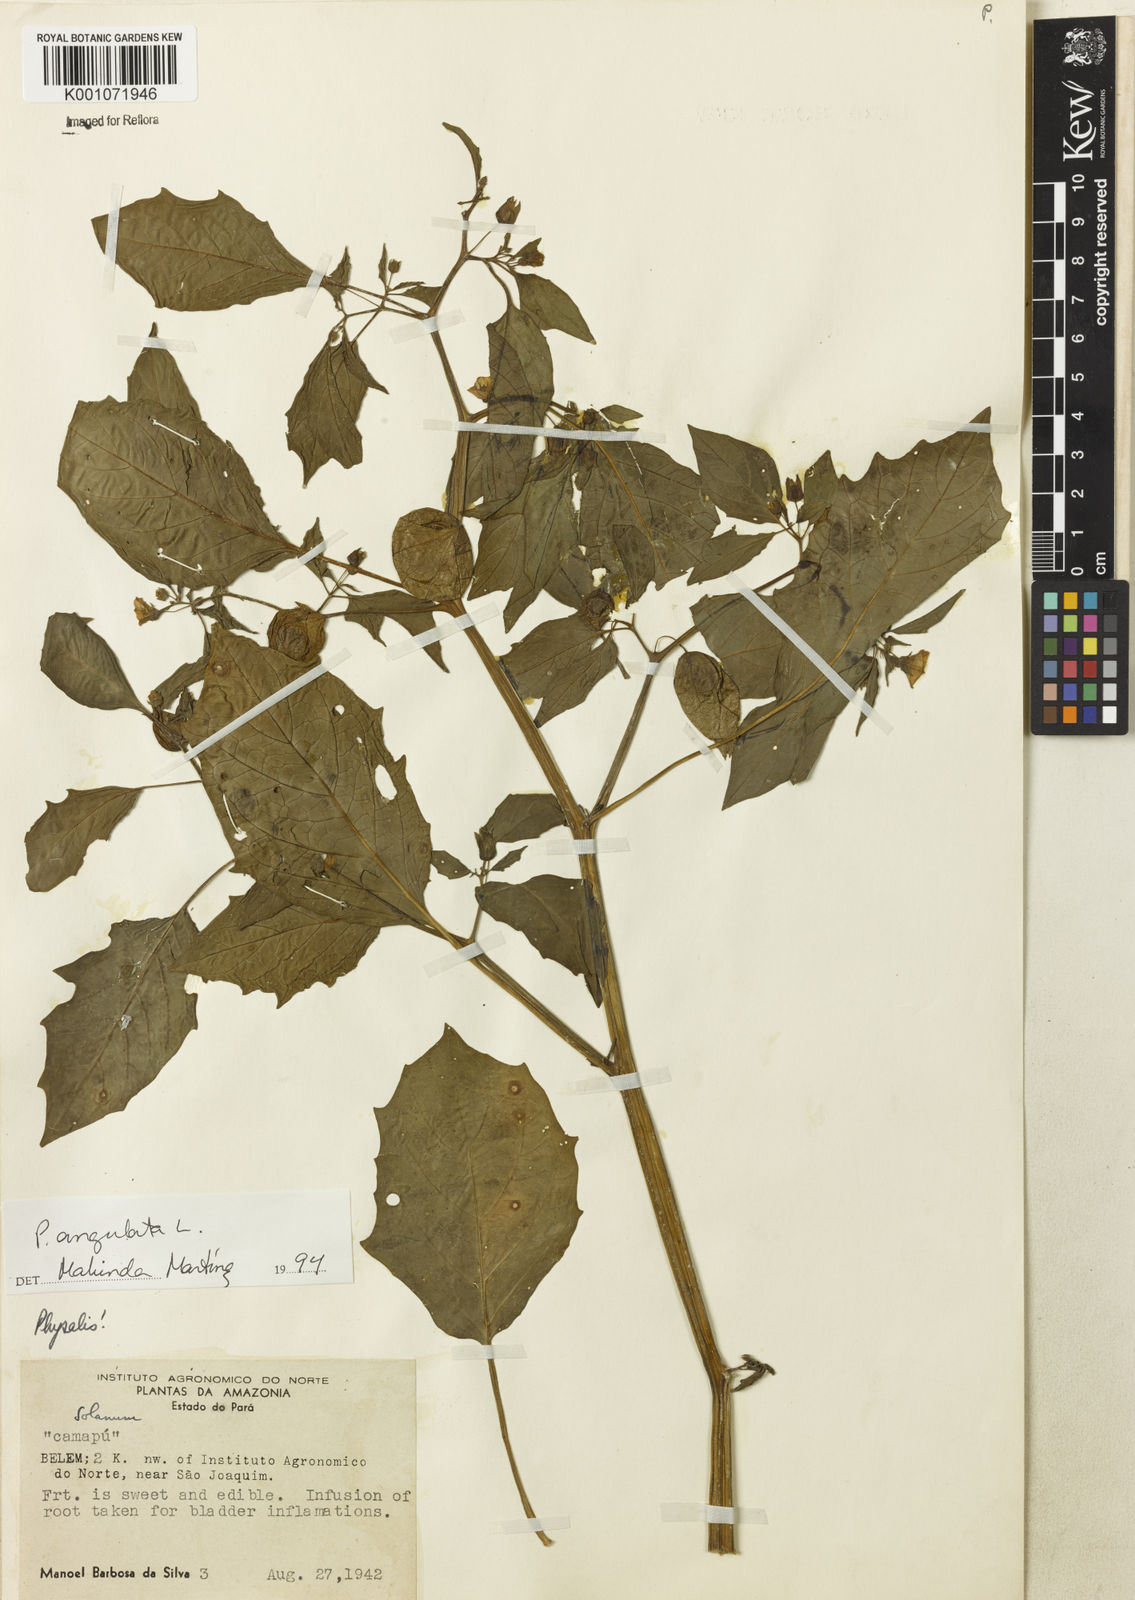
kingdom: Plantae
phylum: Tracheophyta
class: Magnoliopsida
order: Solanales
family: Solanaceae
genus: Physalis
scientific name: Physalis angulata
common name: Angular winter-cherry
